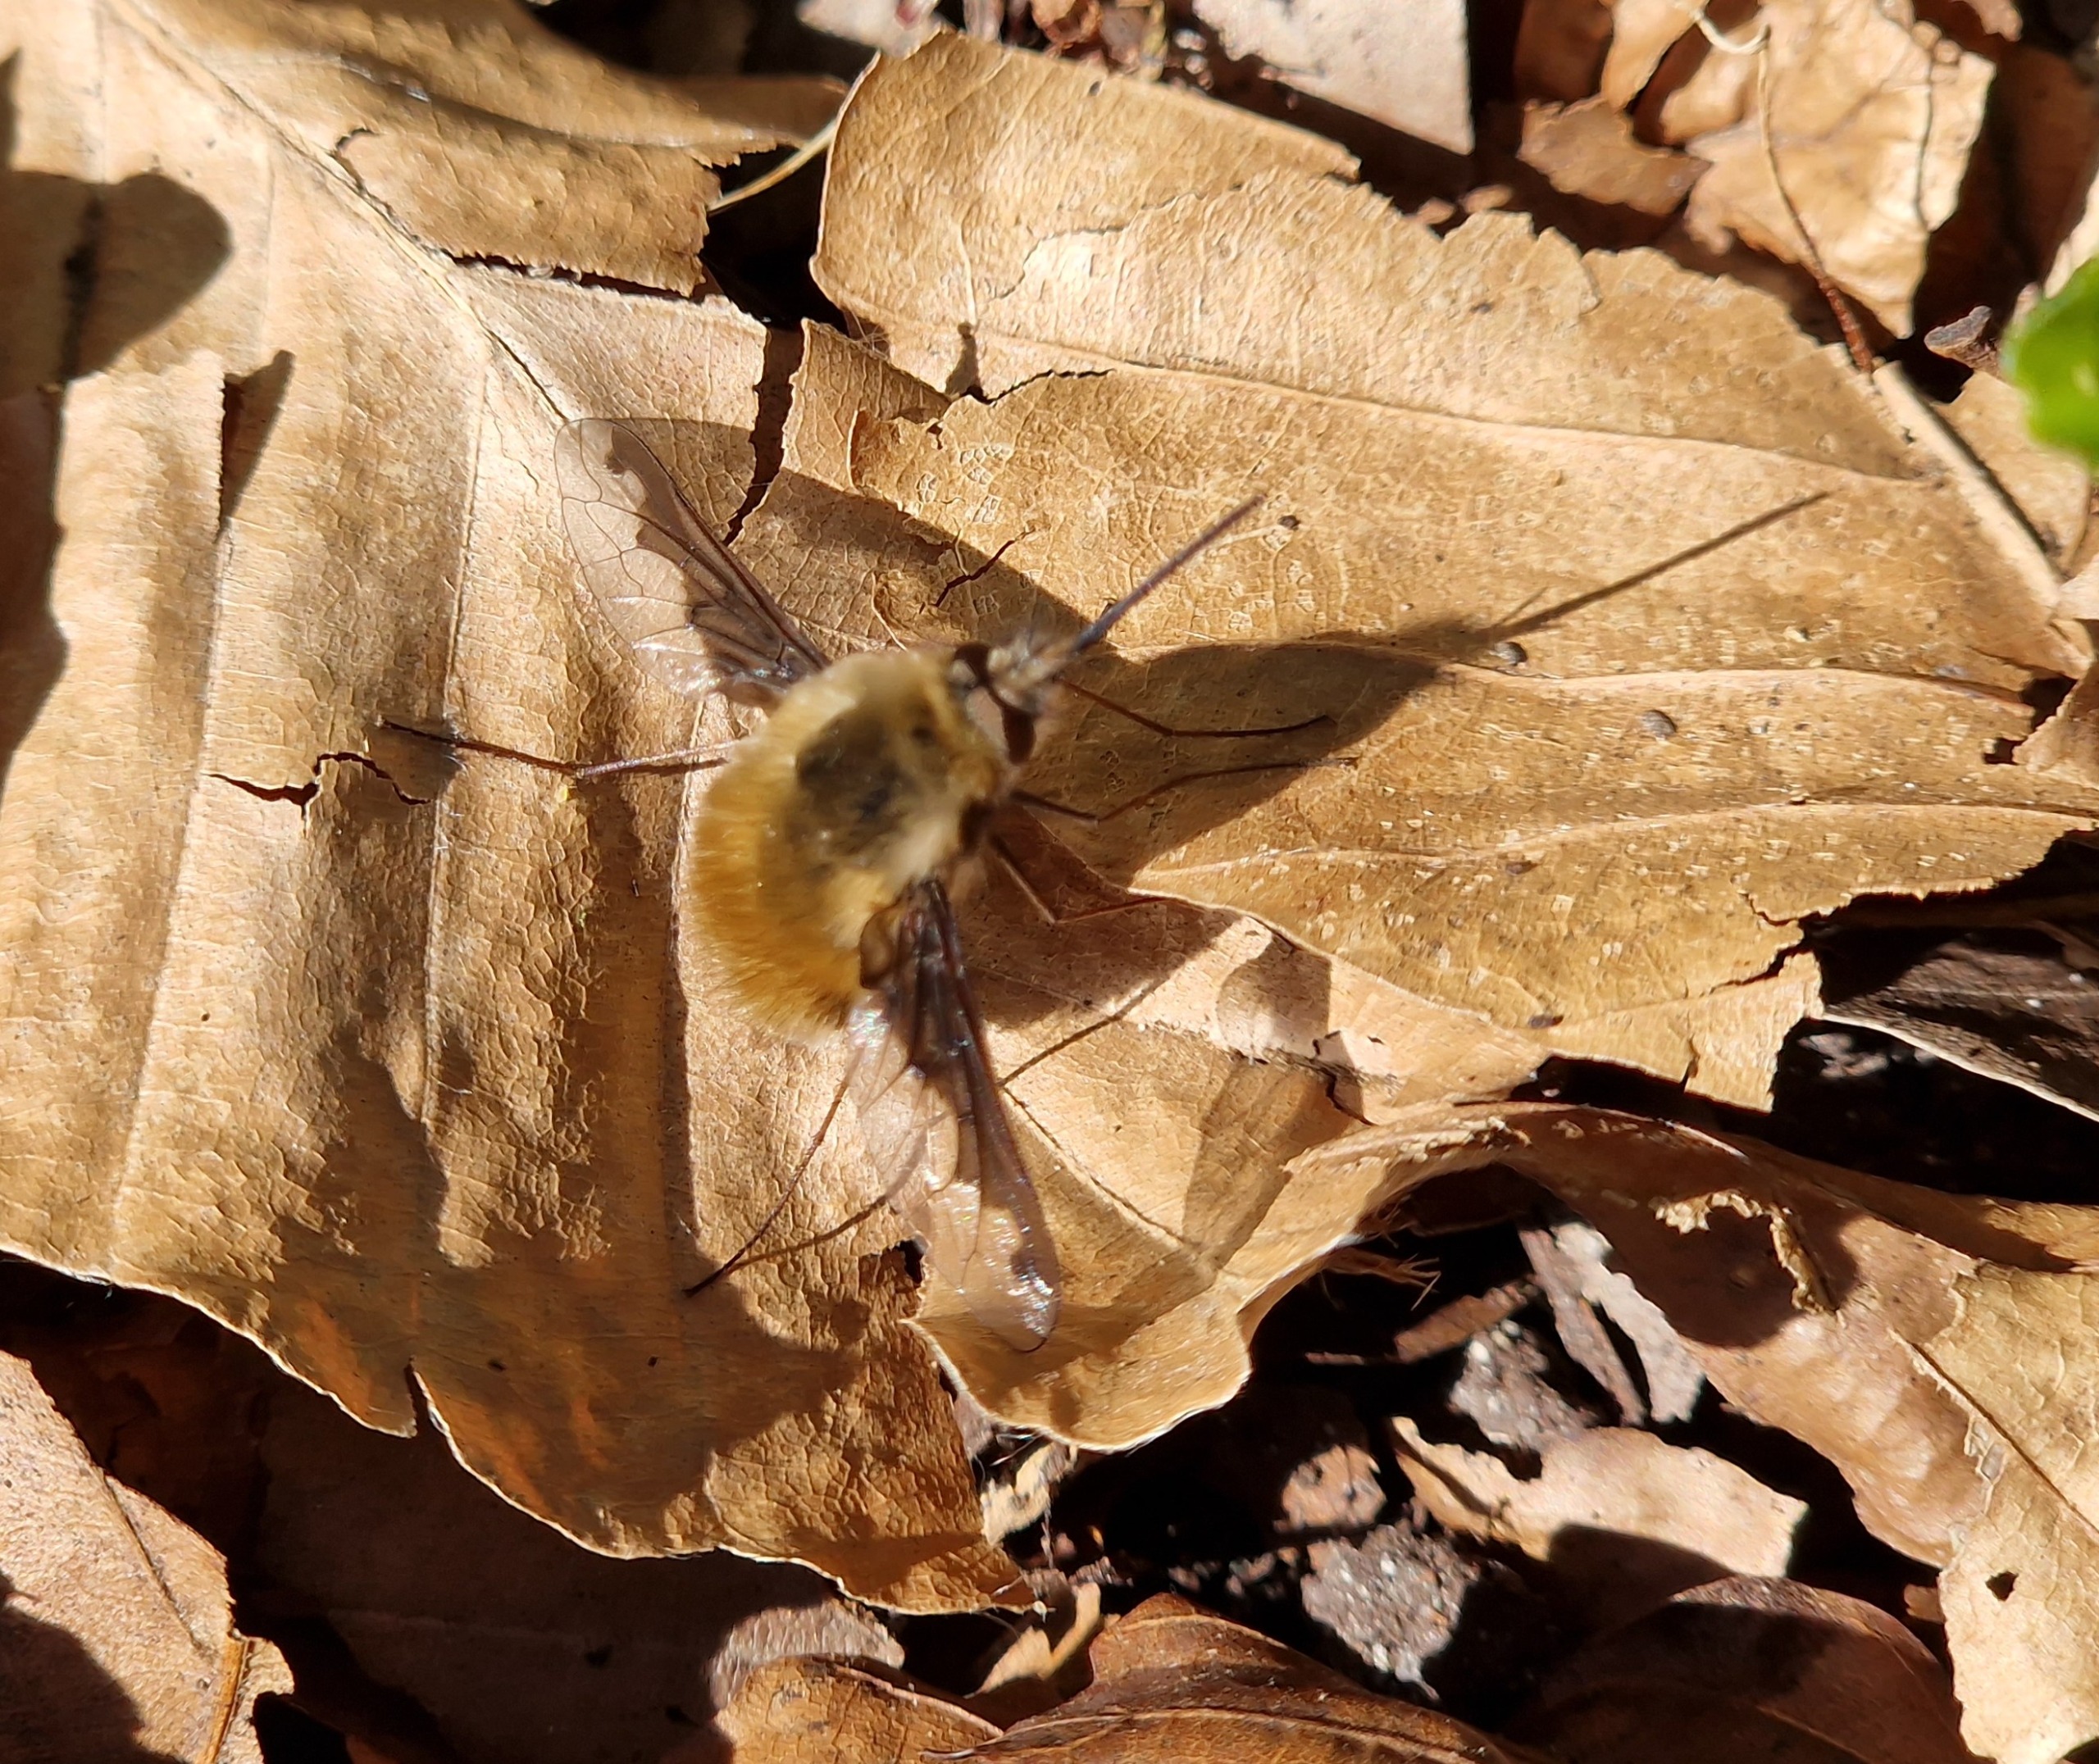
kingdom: Animalia
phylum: Arthropoda
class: Insecta
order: Diptera
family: Bombyliidae
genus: Bombylius
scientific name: Bombylius major
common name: Stor humleflue
